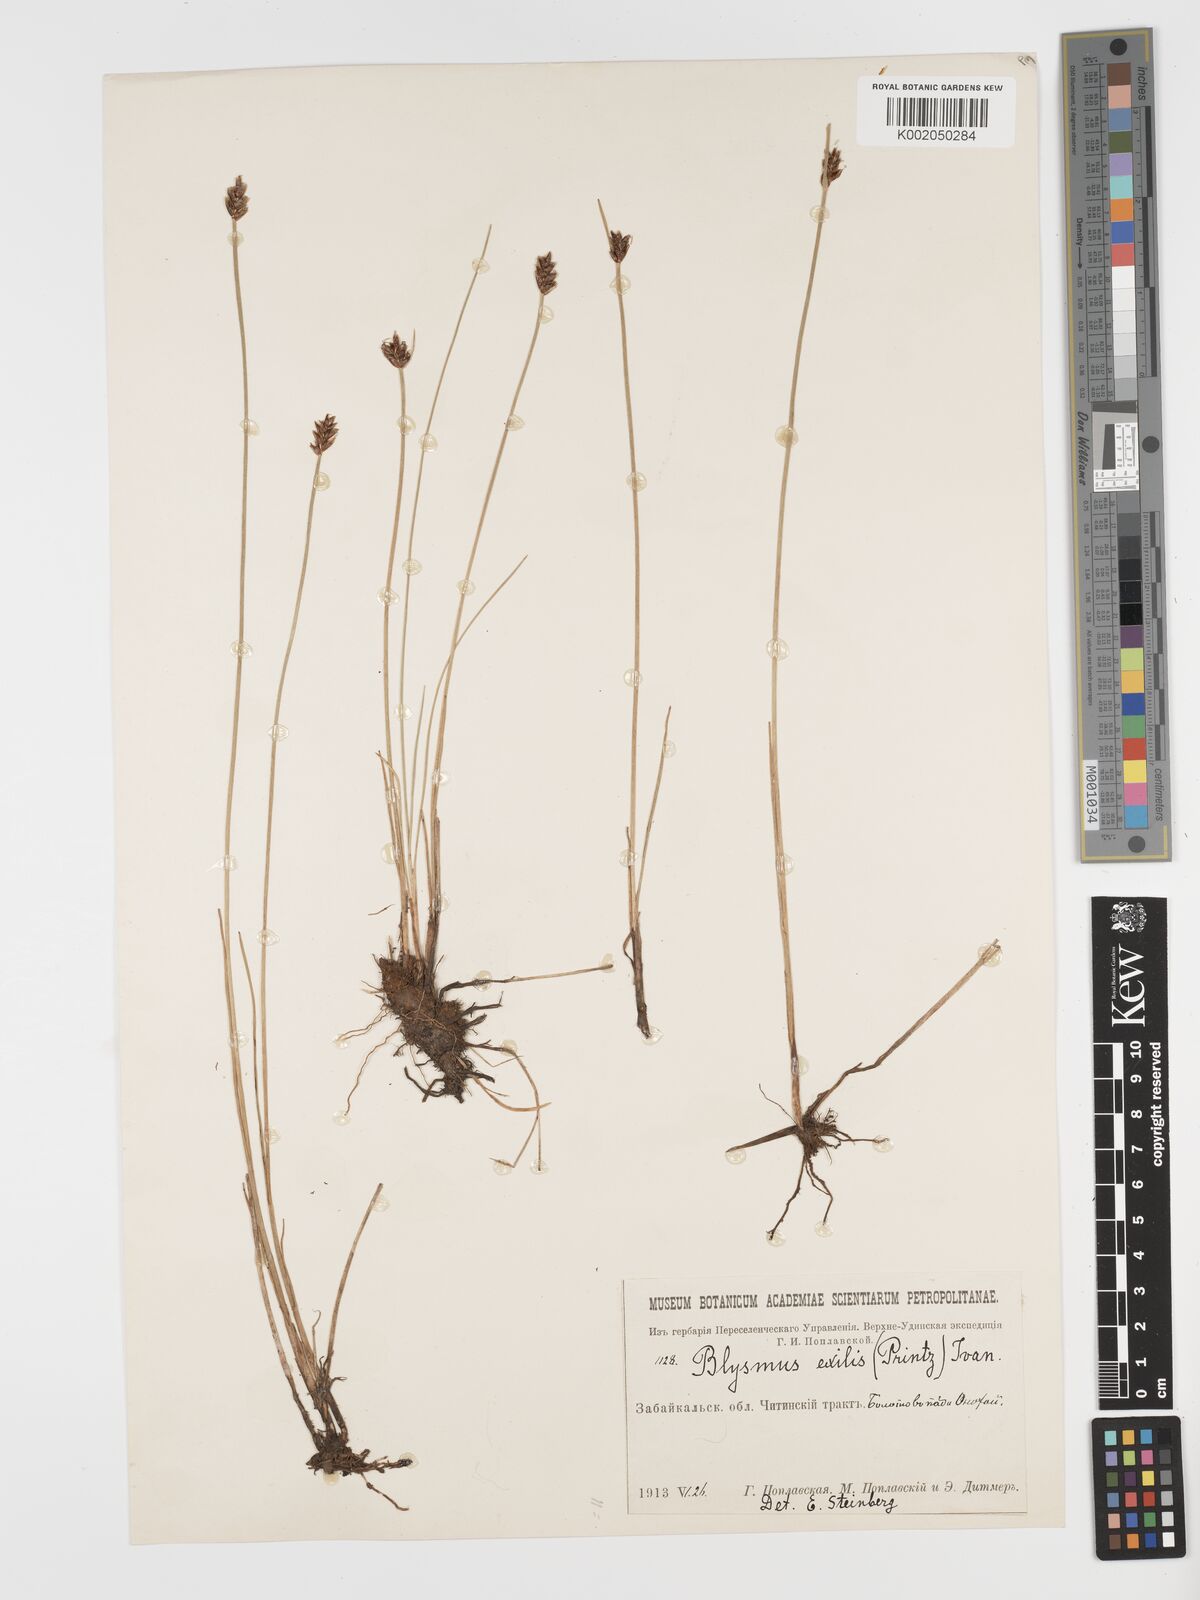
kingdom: Plantae
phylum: Tracheophyta
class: Liliopsida
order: Poales
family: Cyperaceae
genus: Blysmus
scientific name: Blysmus rufus
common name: Saltmarsh flat-sedge
